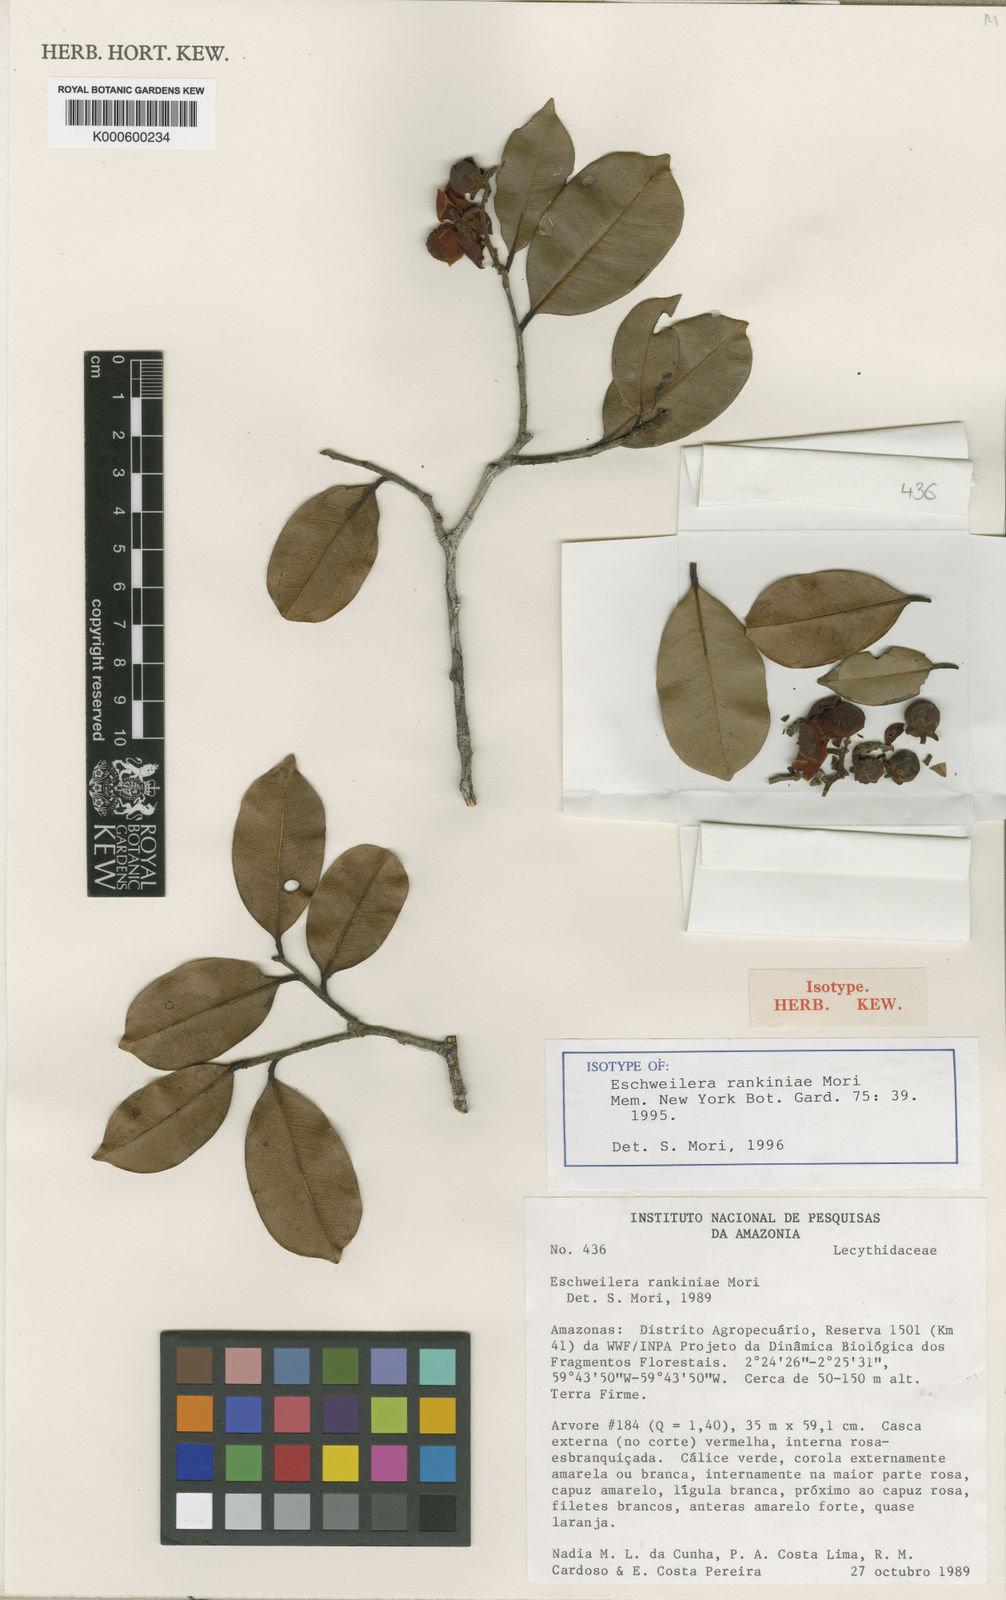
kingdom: Plantae
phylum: Tracheophyta
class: Magnoliopsida
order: Ericales
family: Lecythidaceae
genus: Eschweilera
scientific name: Eschweilera rankiniae
